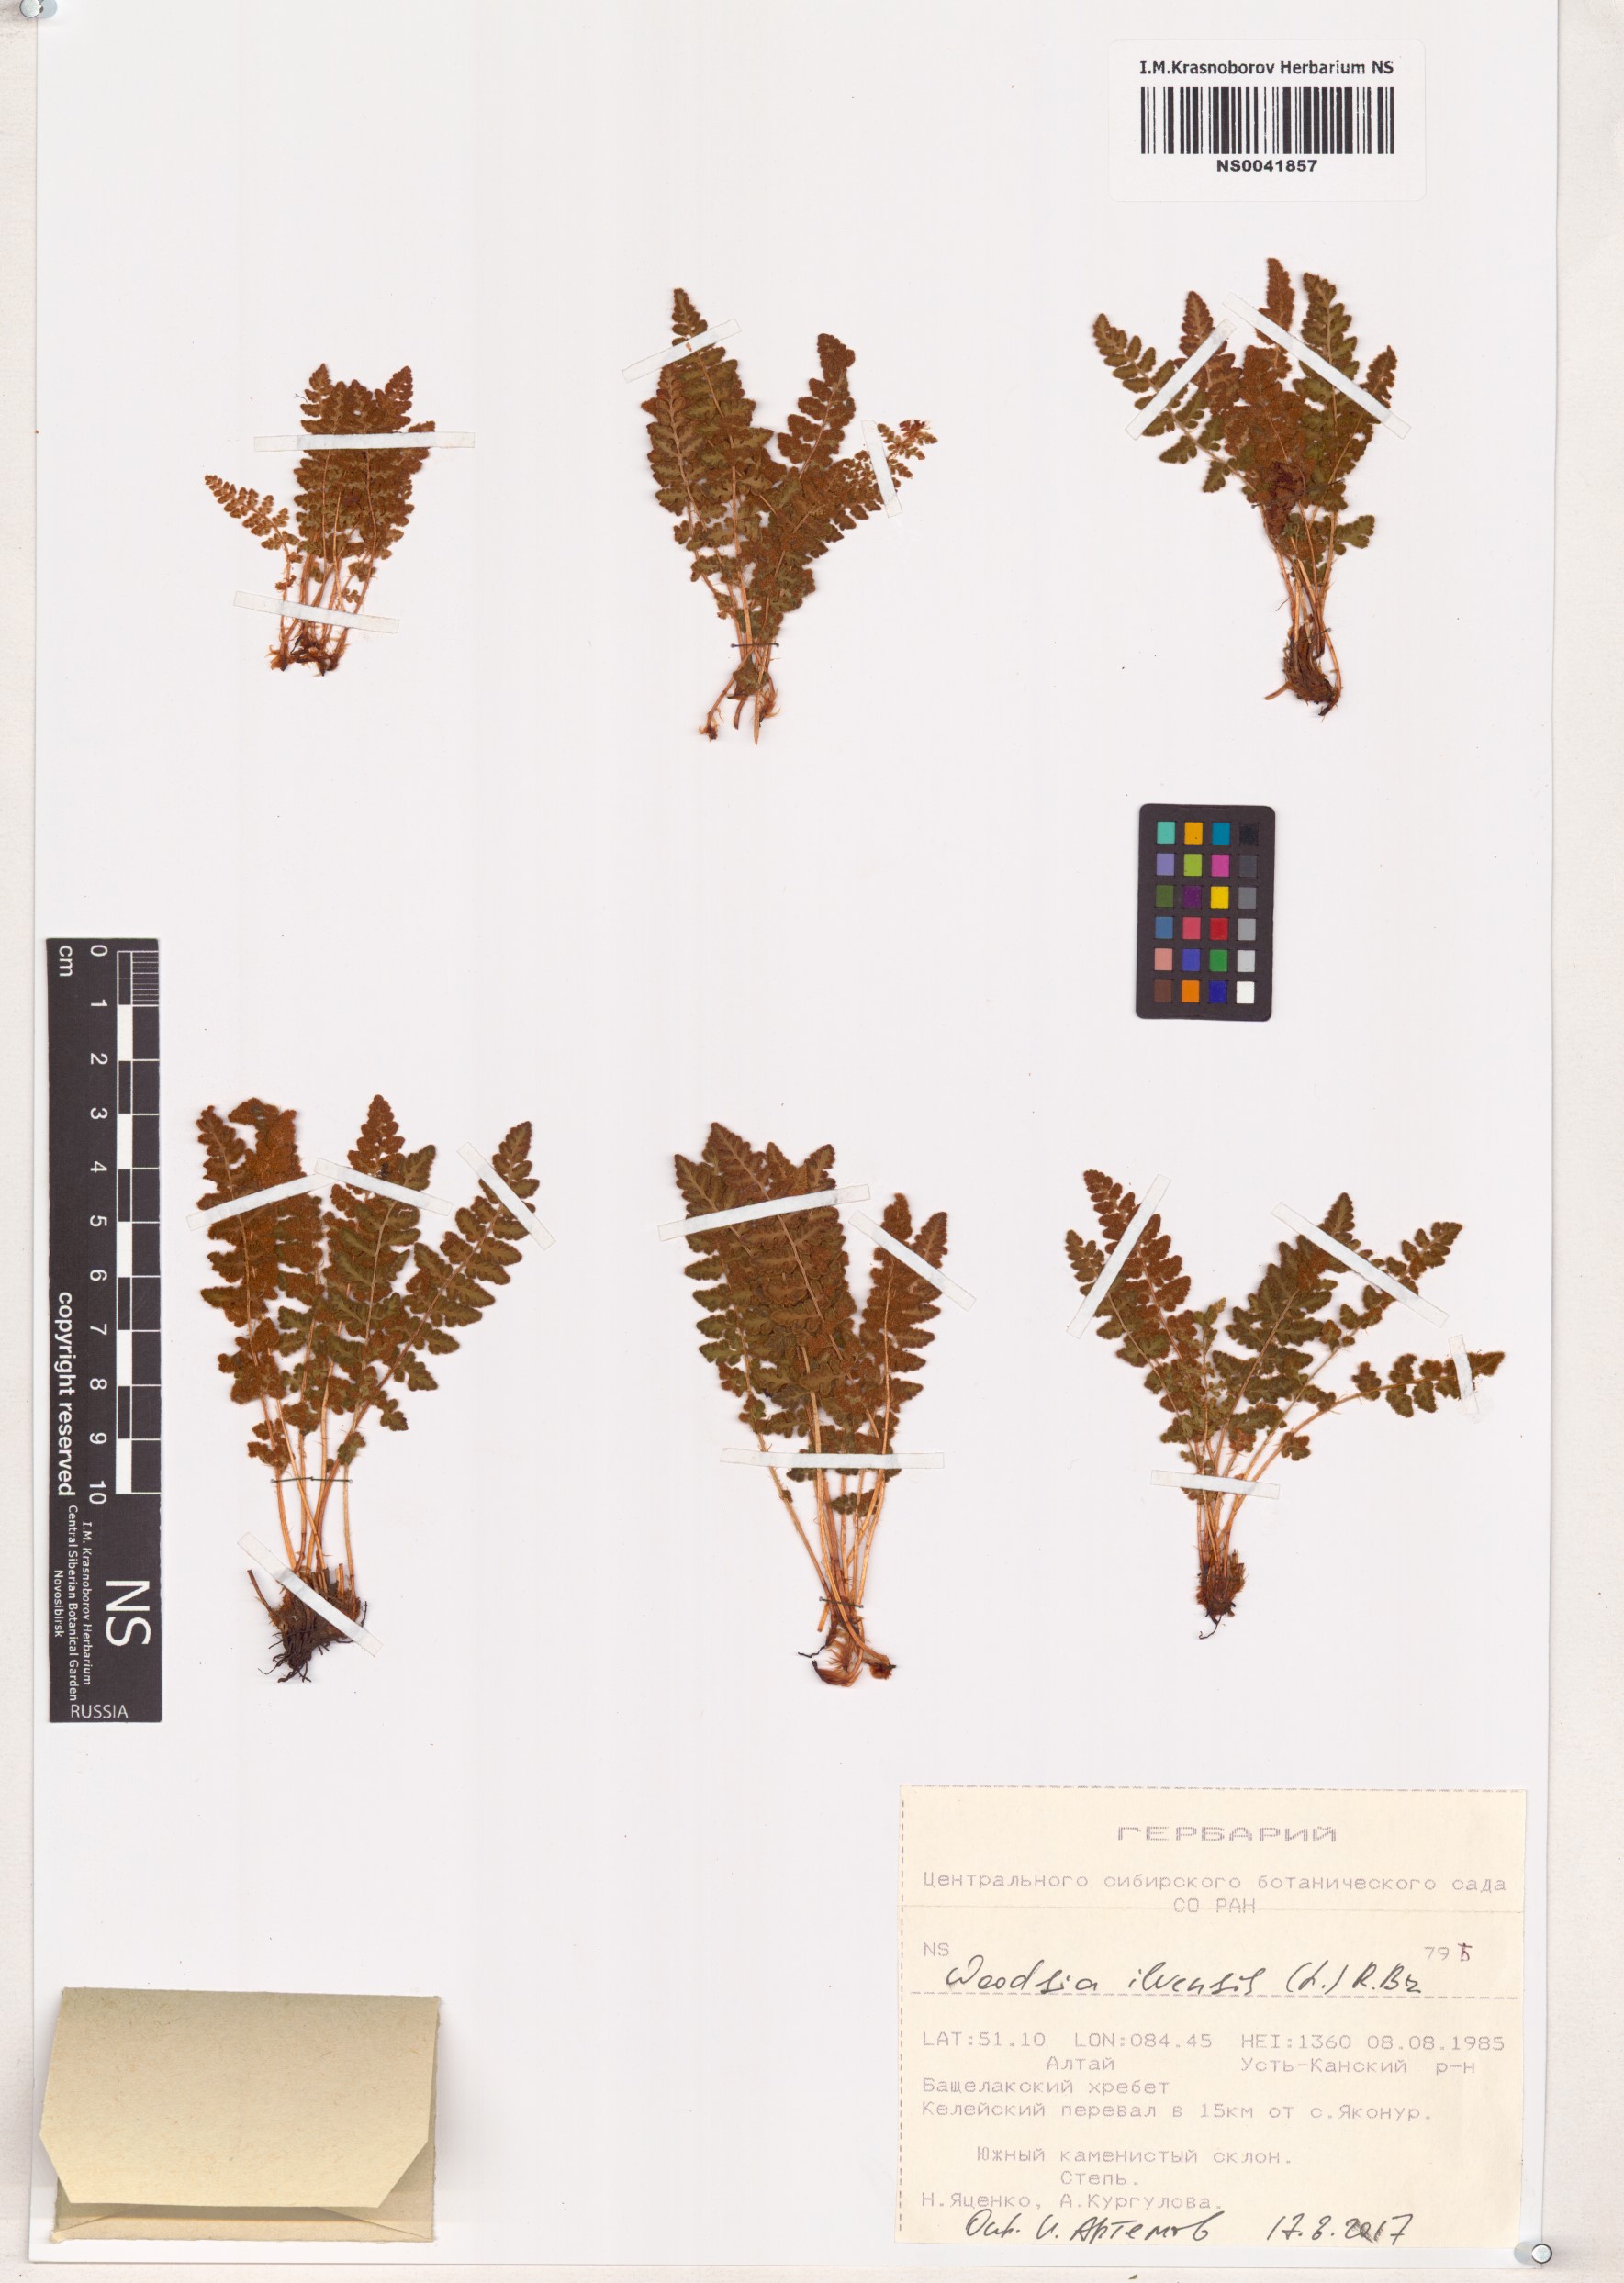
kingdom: Plantae
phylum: Tracheophyta
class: Polypodiopsida
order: Polypodiales
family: Woodsiaceae
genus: Woodsia
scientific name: Woodsia ilvensis
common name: Fragrant woodsia
